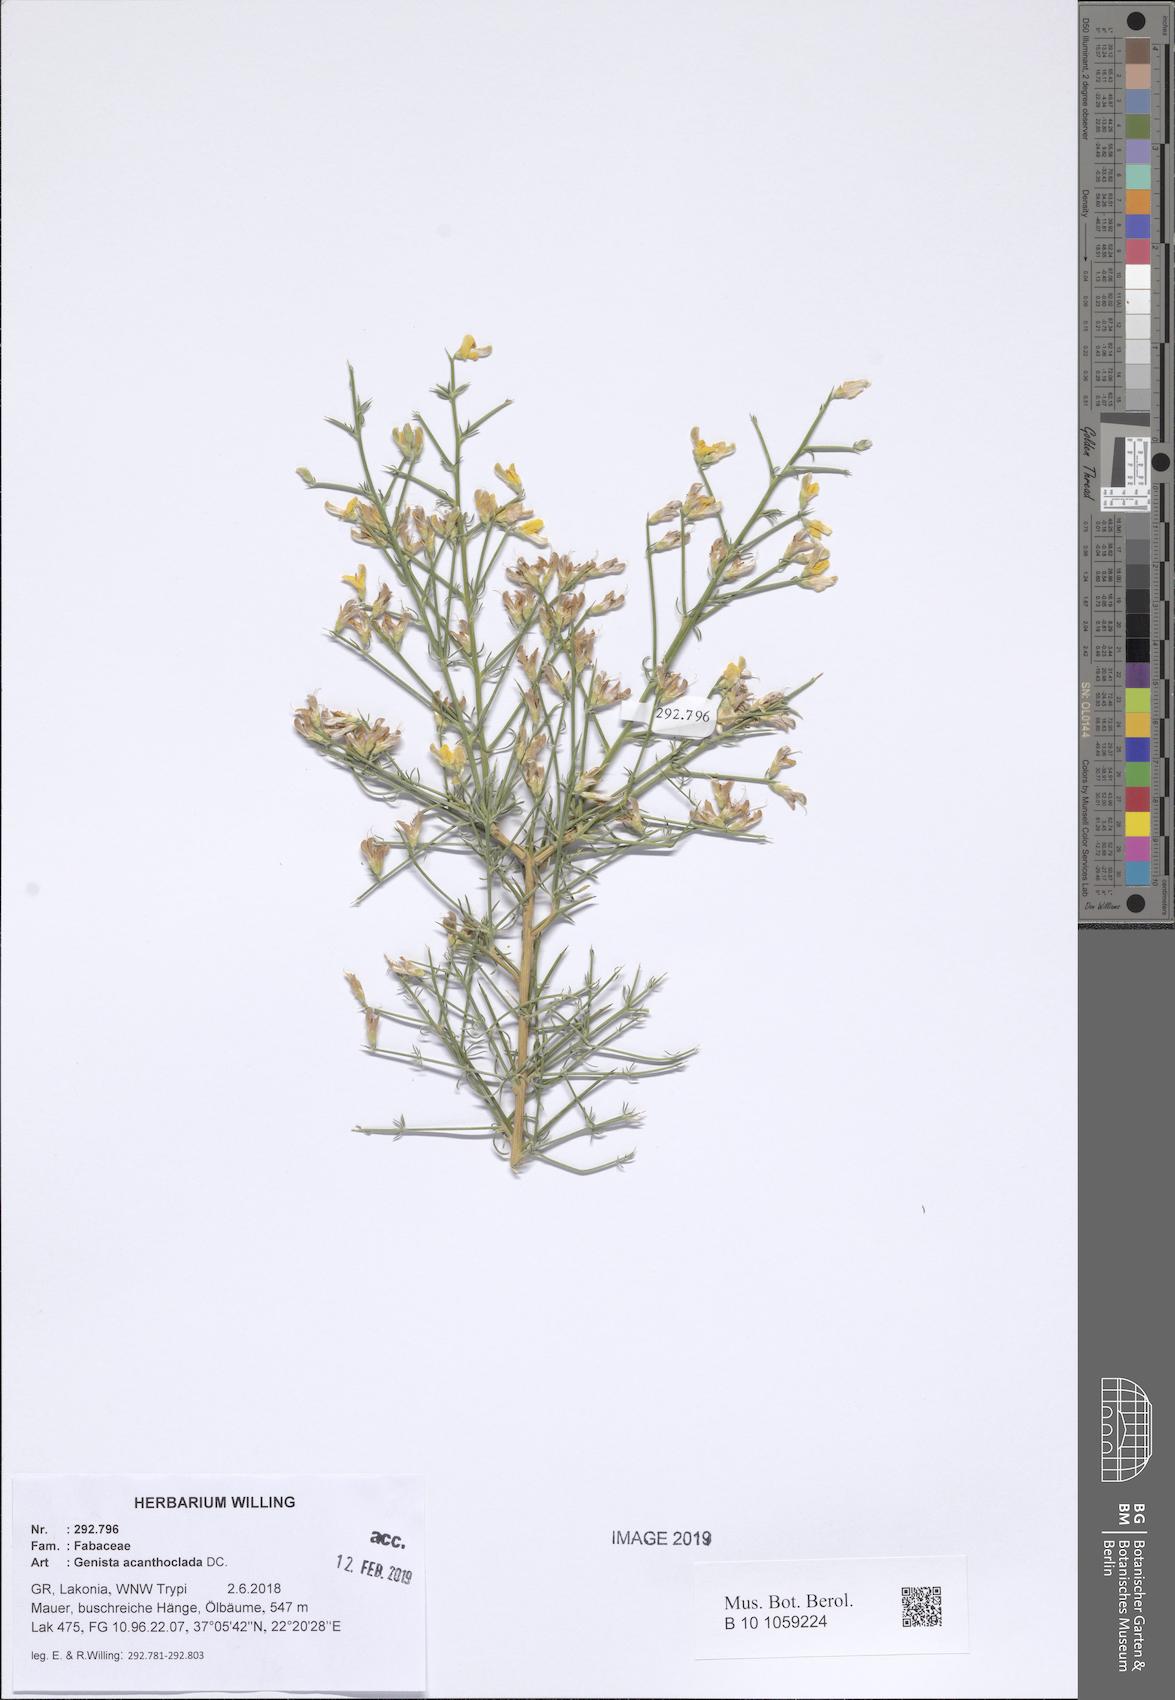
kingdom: Plantae
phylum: Tracheophyta
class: Magnoliopsida
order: Fabales
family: Fabaceae
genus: Genista
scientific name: Genista acanthoclada
